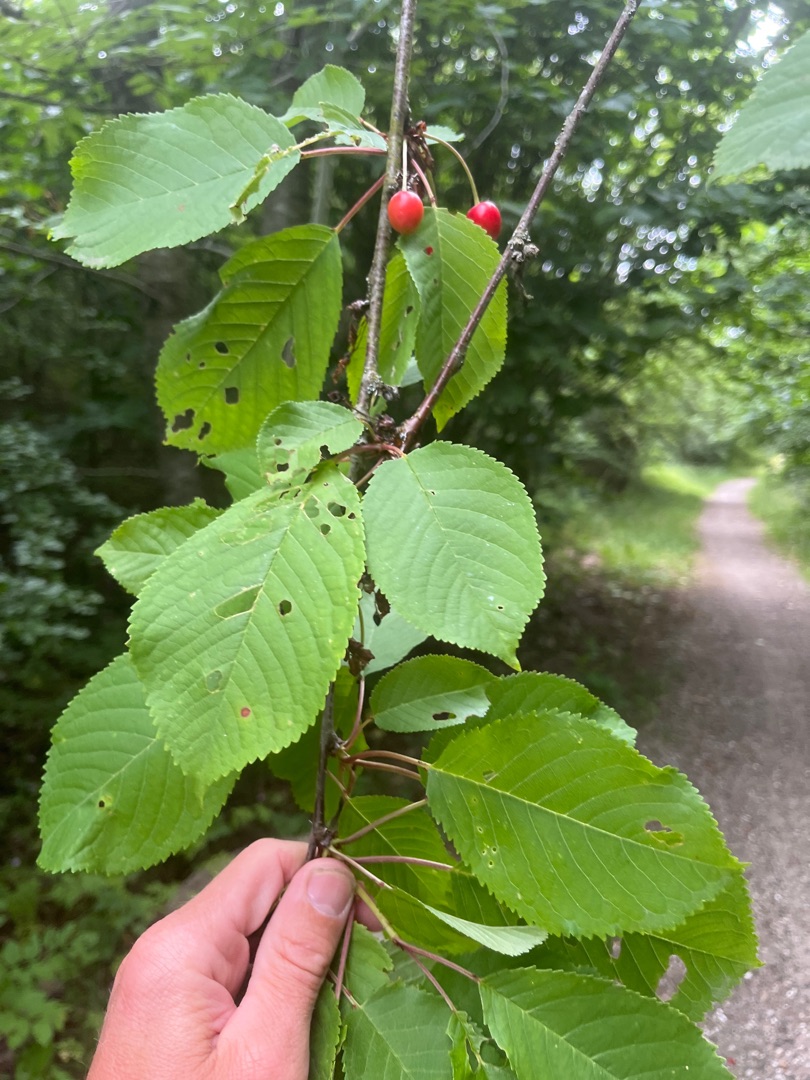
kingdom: Plantae
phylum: Tracheophyta
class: Magnoliopsida
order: Rosales
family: Rosaceae
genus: Prunus
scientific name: Prunus avium
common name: Fugle-kirsebær
